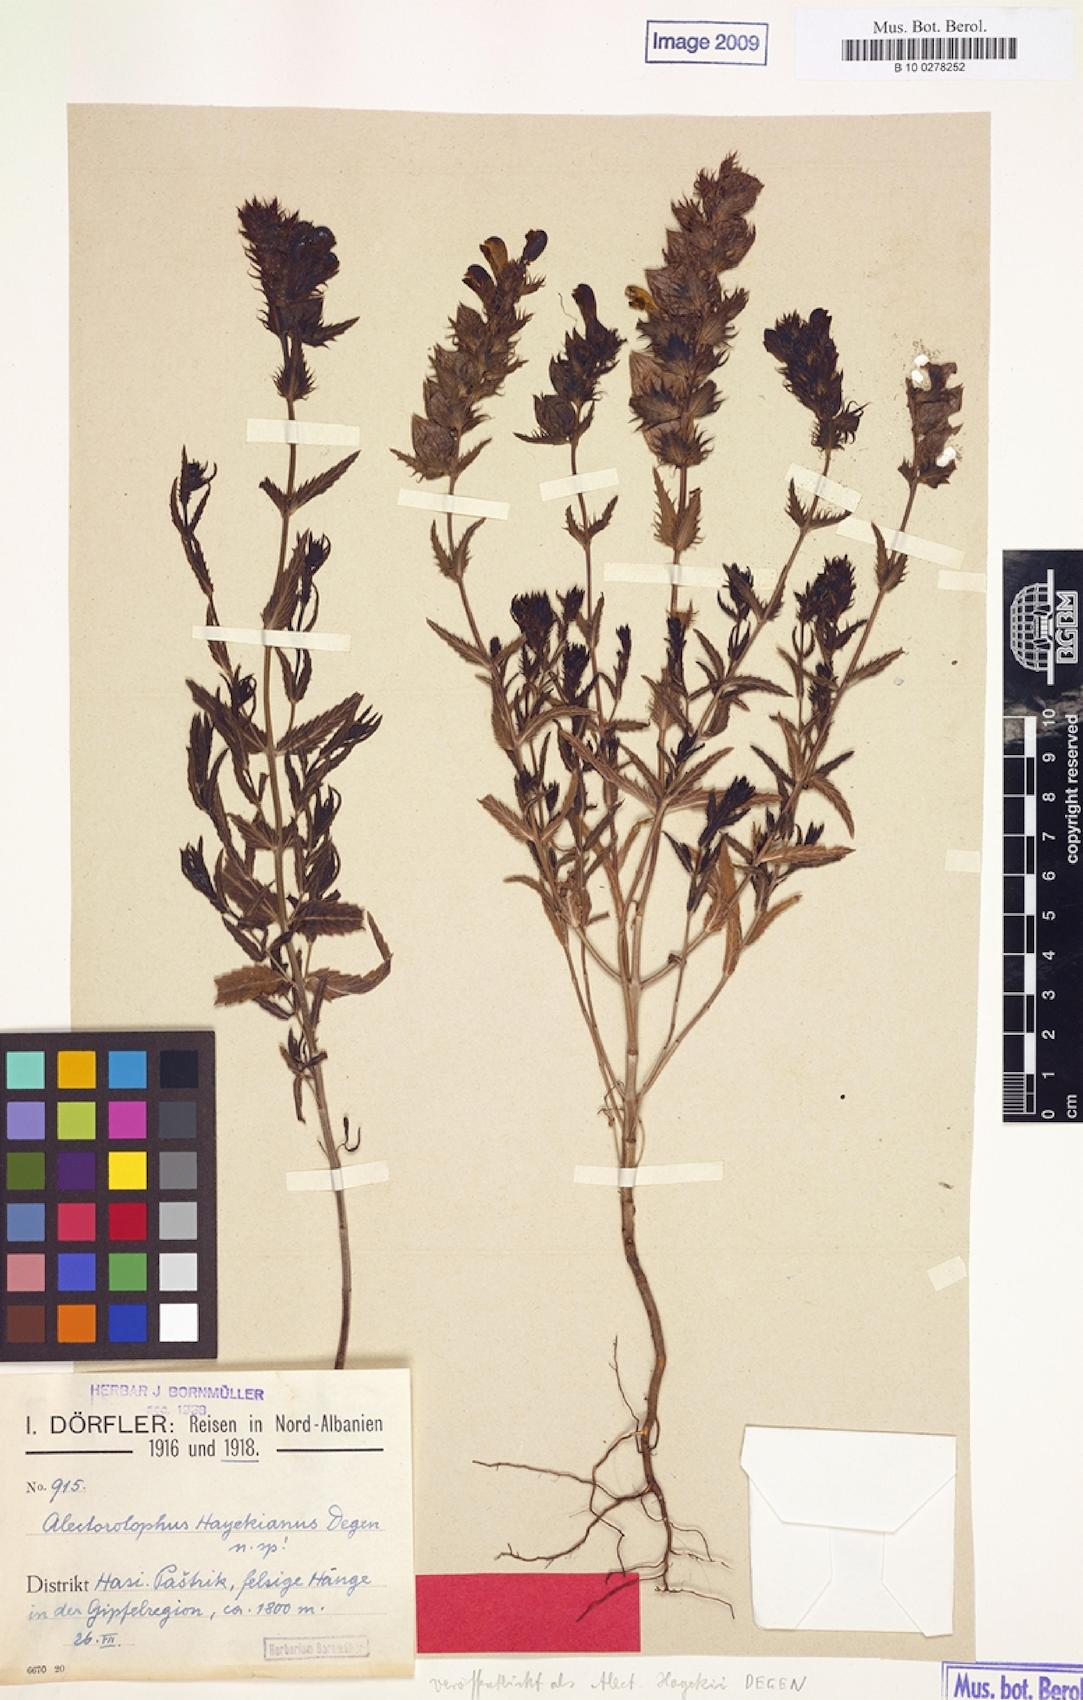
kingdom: Plantae
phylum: Tracheophyta
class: Magnoliopsida
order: Lamiales
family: Orobanchaceae
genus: Rhinanthus
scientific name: Rhinanthus pumilus
